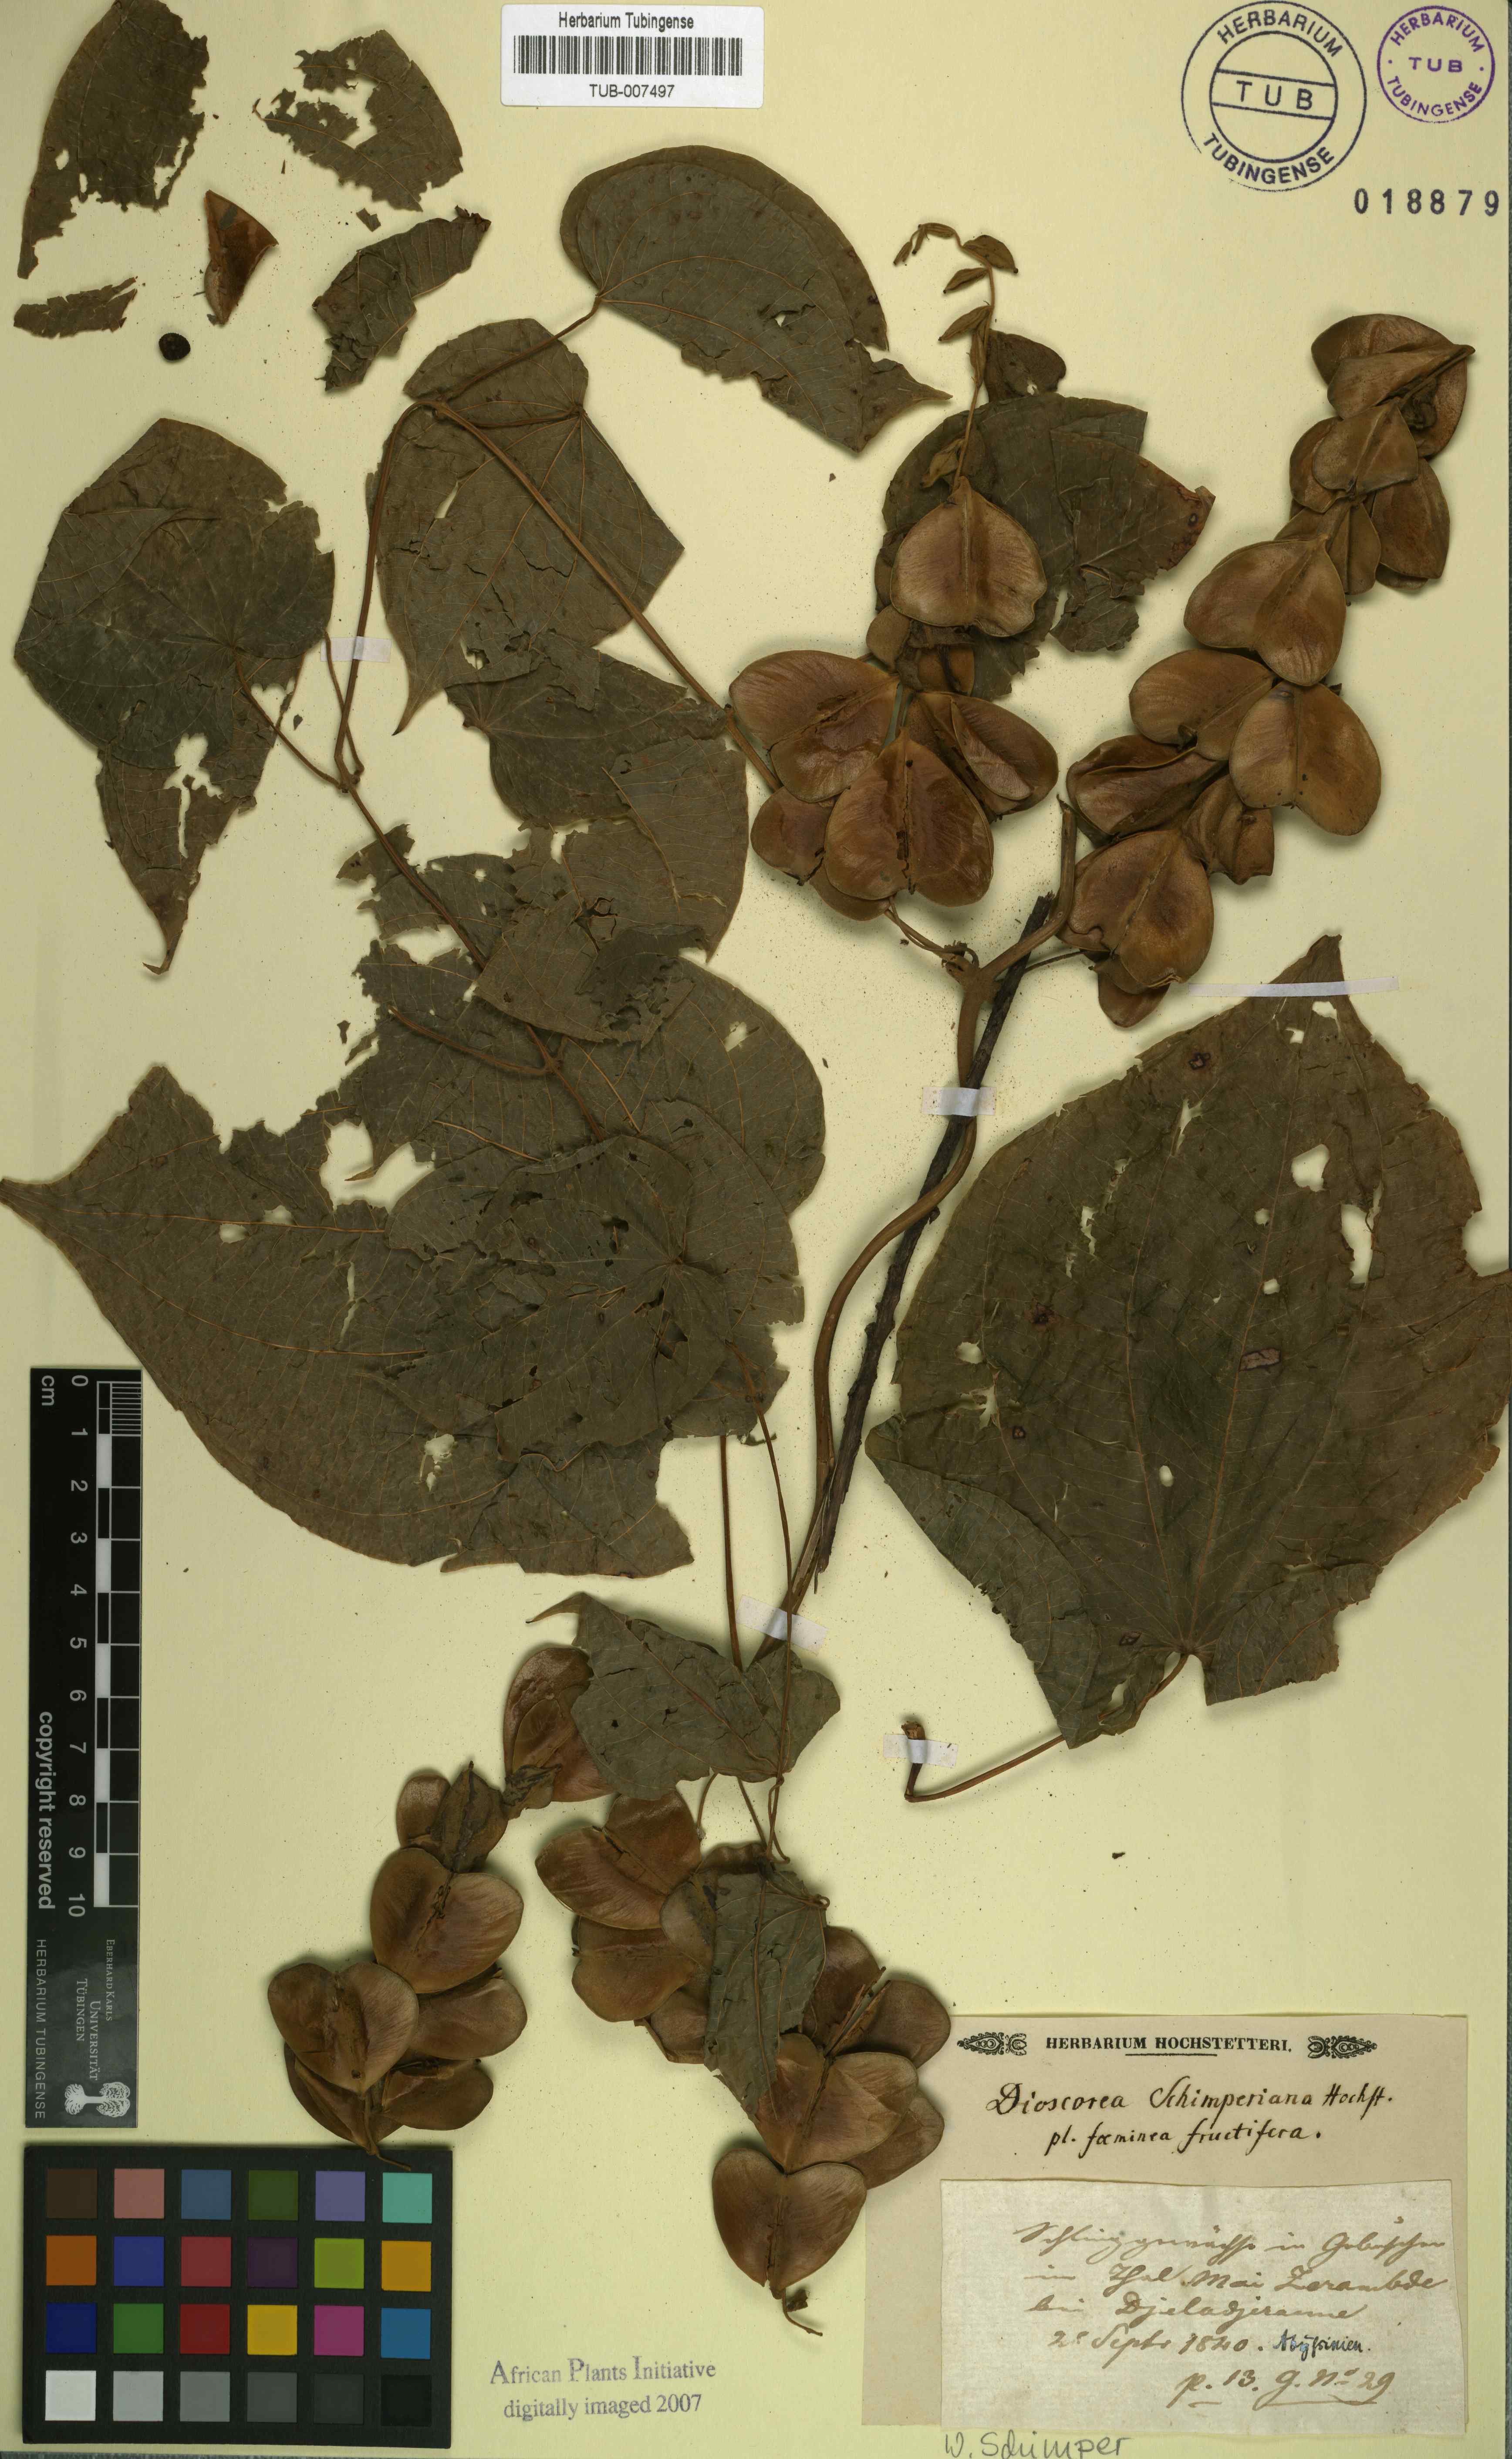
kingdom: Plantae
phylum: Tracheophyta
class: Liliopsida
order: Dioscoreales
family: Dioscoreaceae
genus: Dioscorea
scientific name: Dioscorea schimperiana
